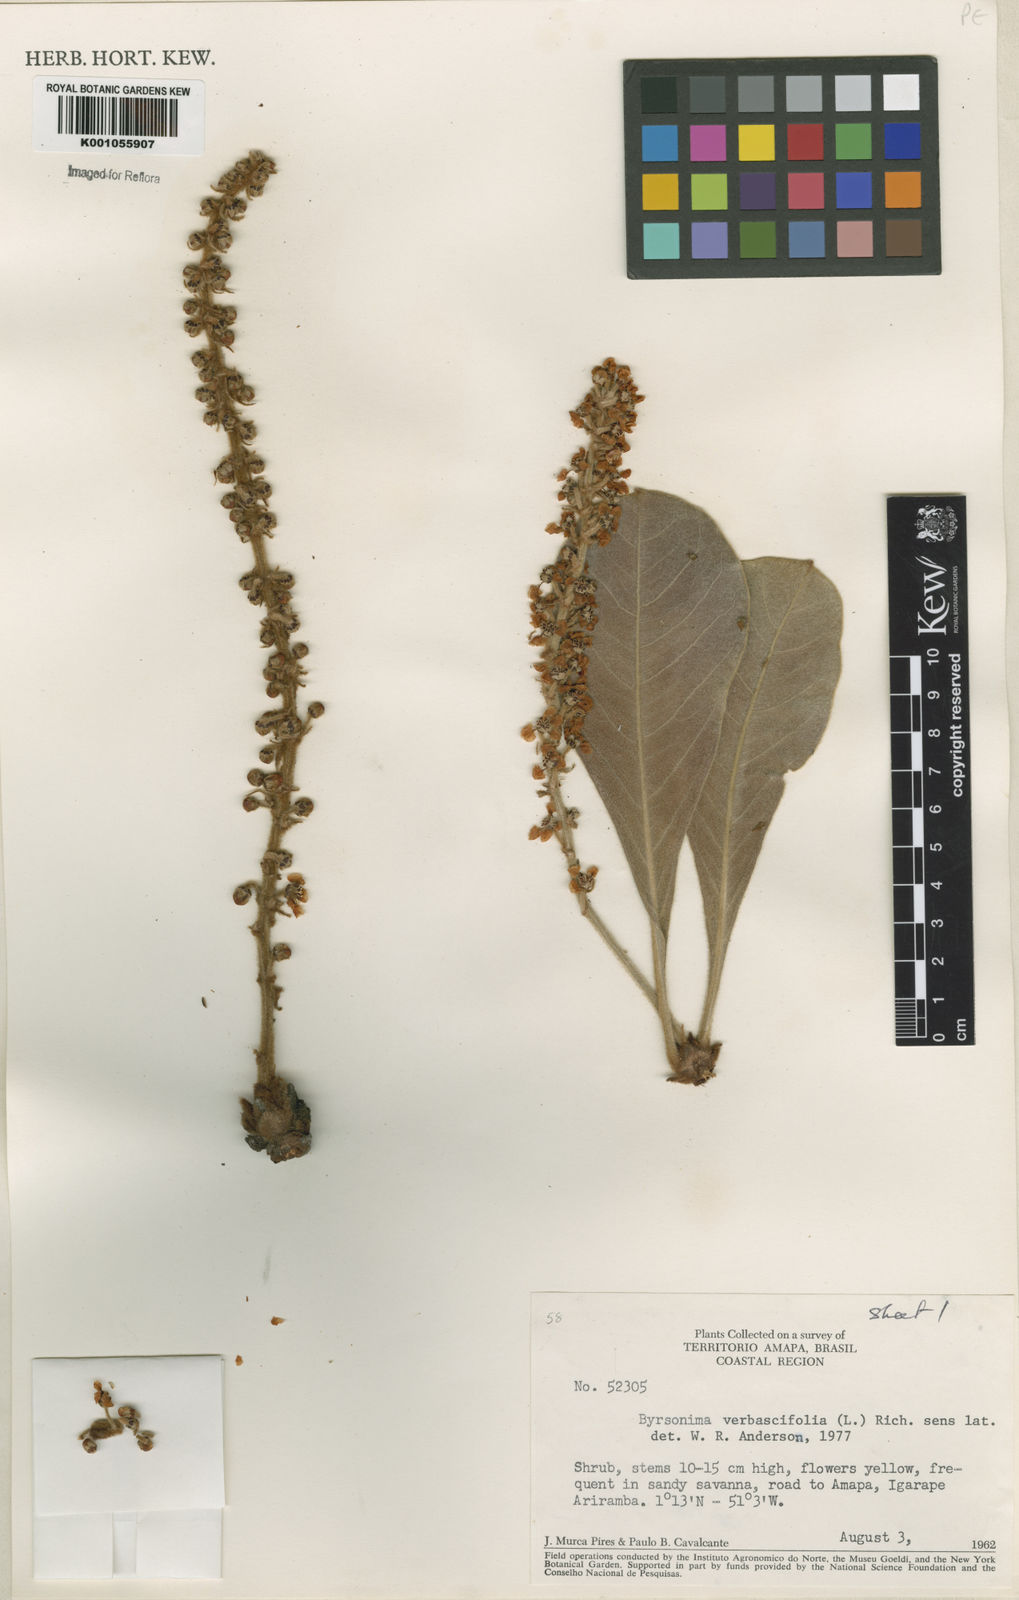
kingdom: Plantae
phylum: Tracheophyta
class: Magnoliopsida
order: Malpighiales
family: Malpighiaceae
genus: Byrsonima
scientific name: Byrsonima verbascifolia
